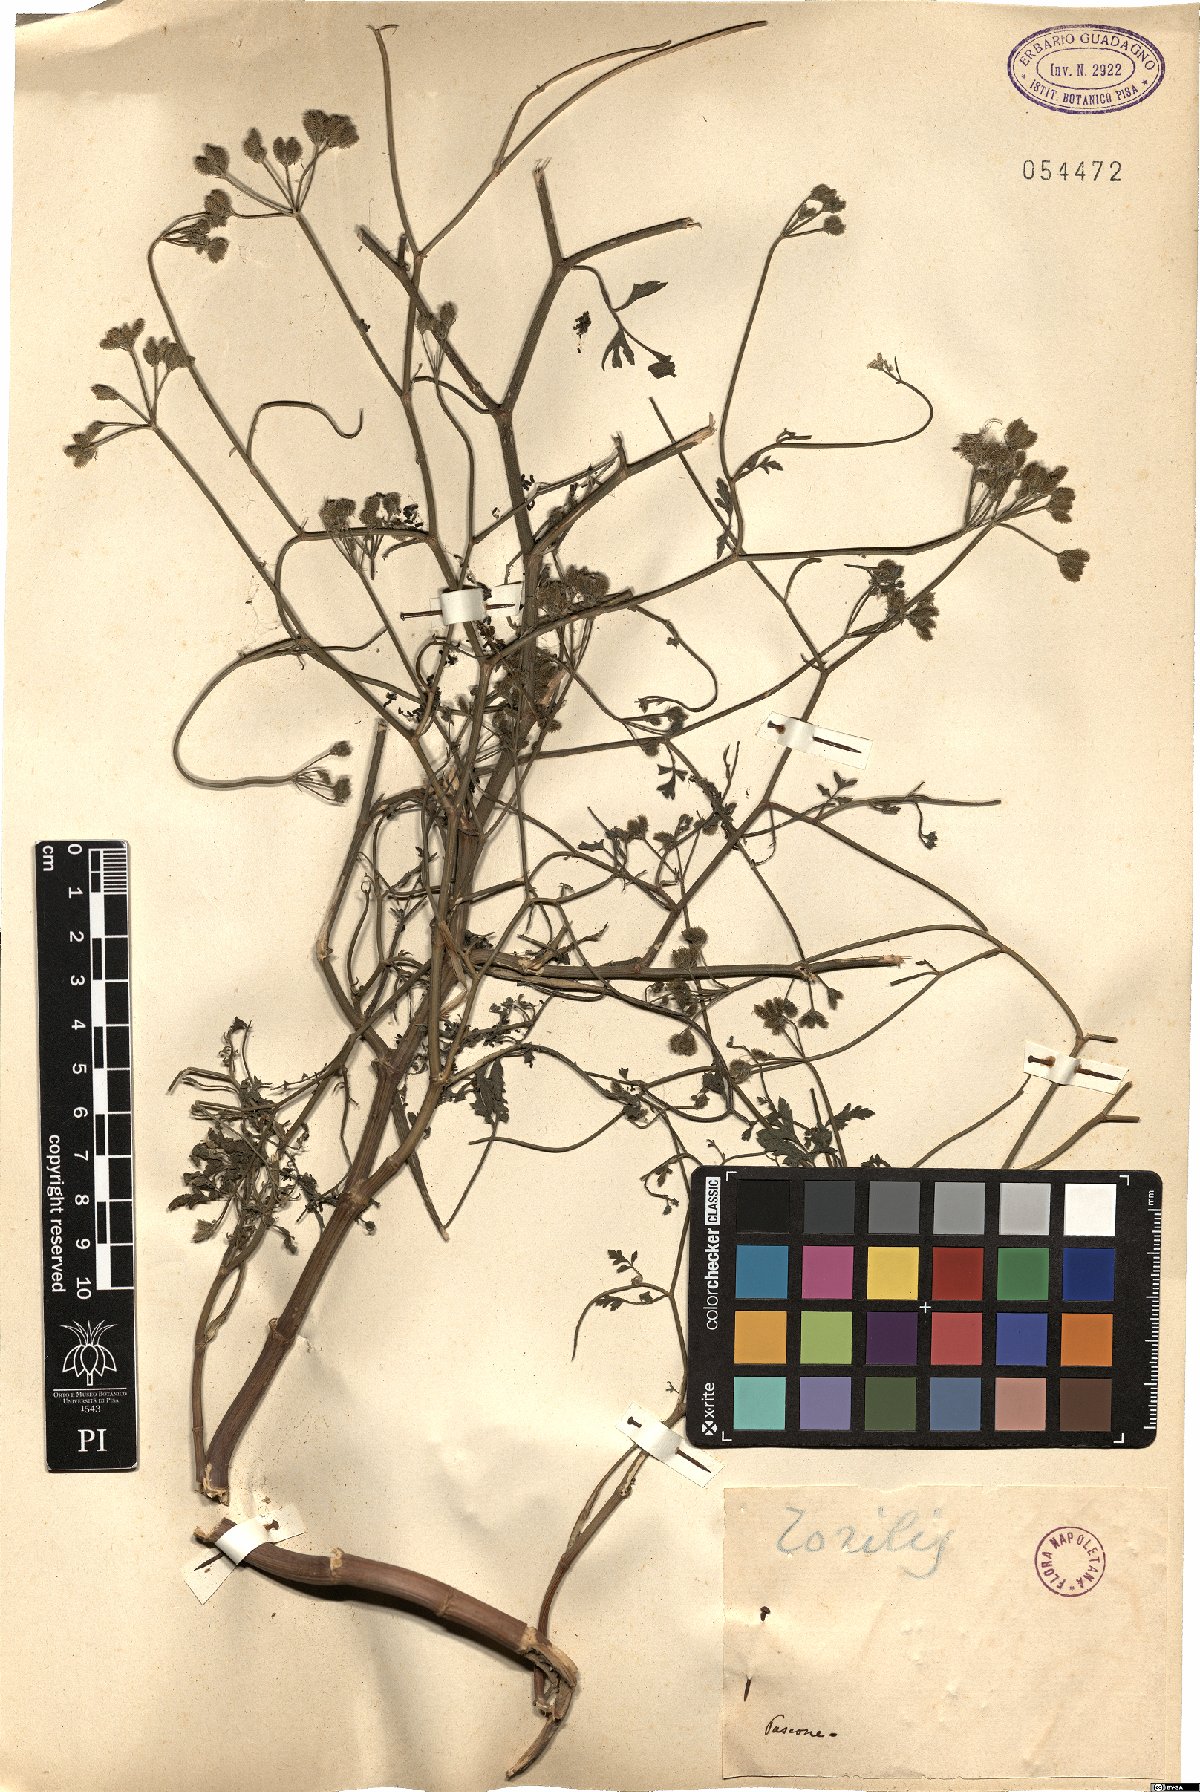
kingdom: Plantae
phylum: Tracheophyta
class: Magnoliopsida
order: Apiales
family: Apiaceae
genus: Torilis
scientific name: Torilis
